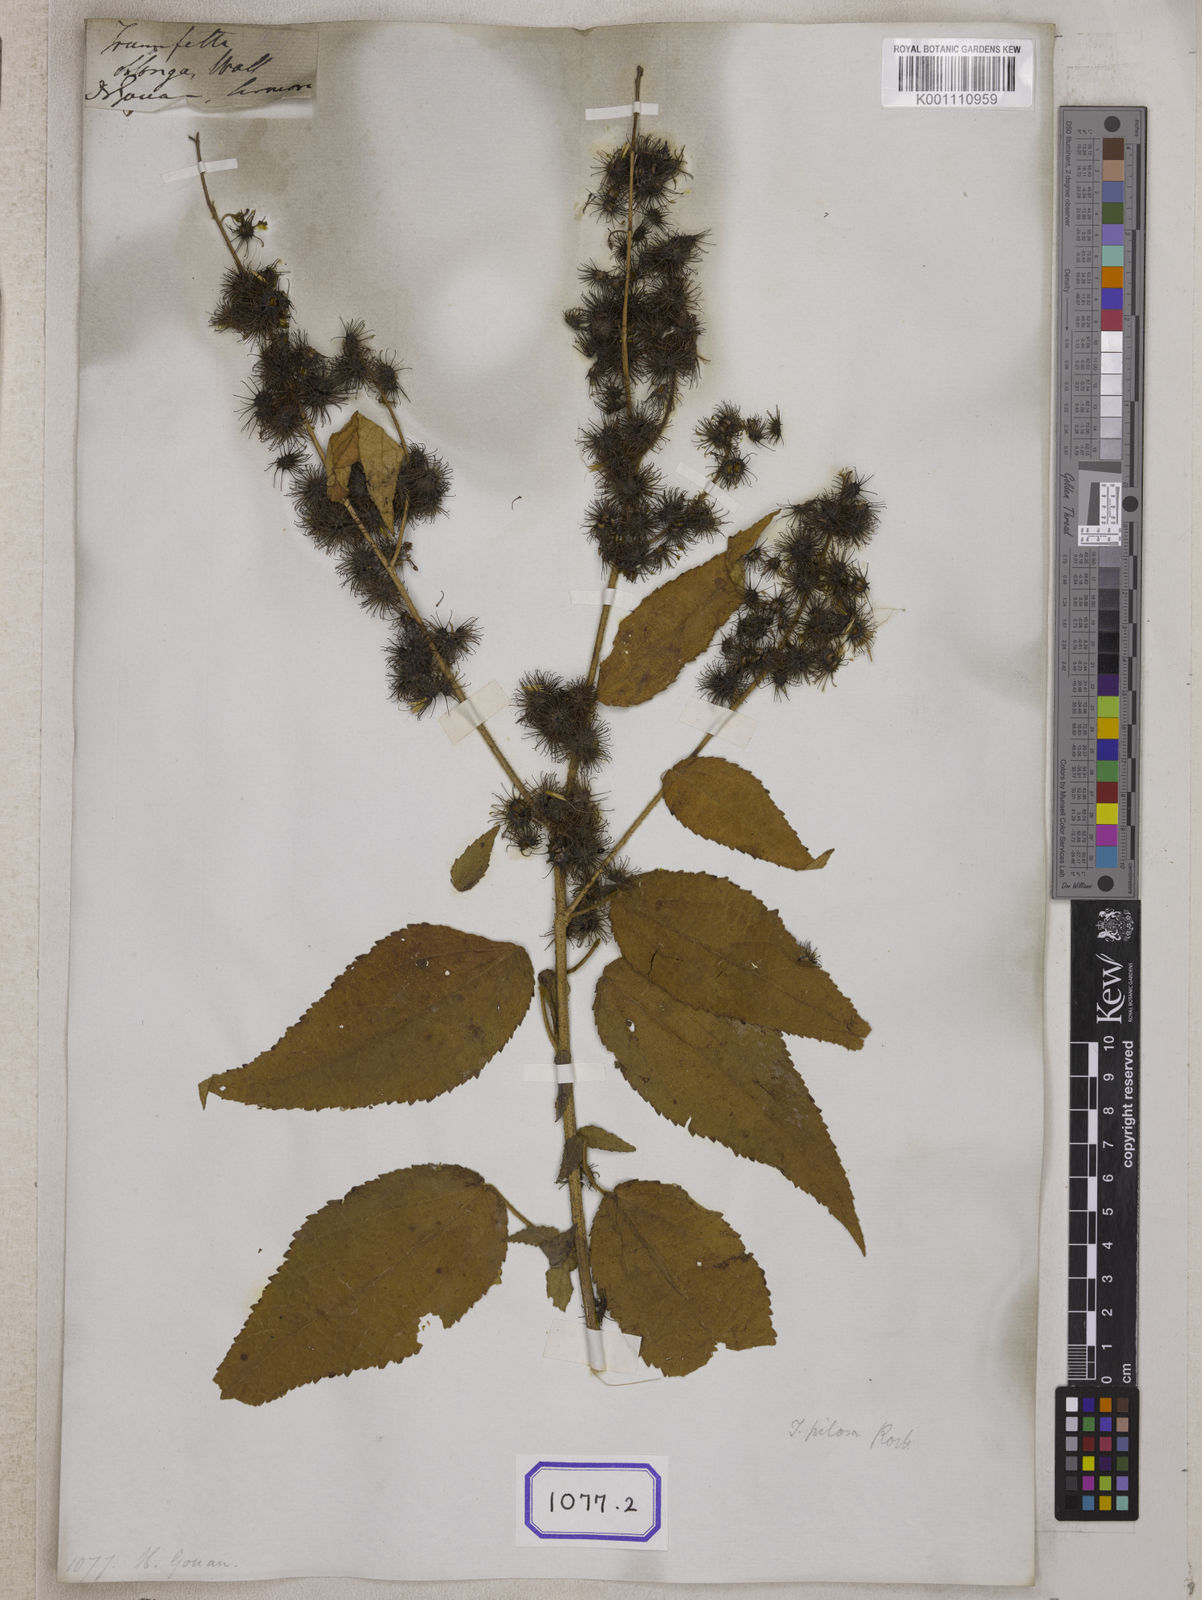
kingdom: Plantae
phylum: Tracheophyta
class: Magnoliopsida
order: Malvales
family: Malvaceae
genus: Triumfetta
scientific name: Triumfetta pilosa
